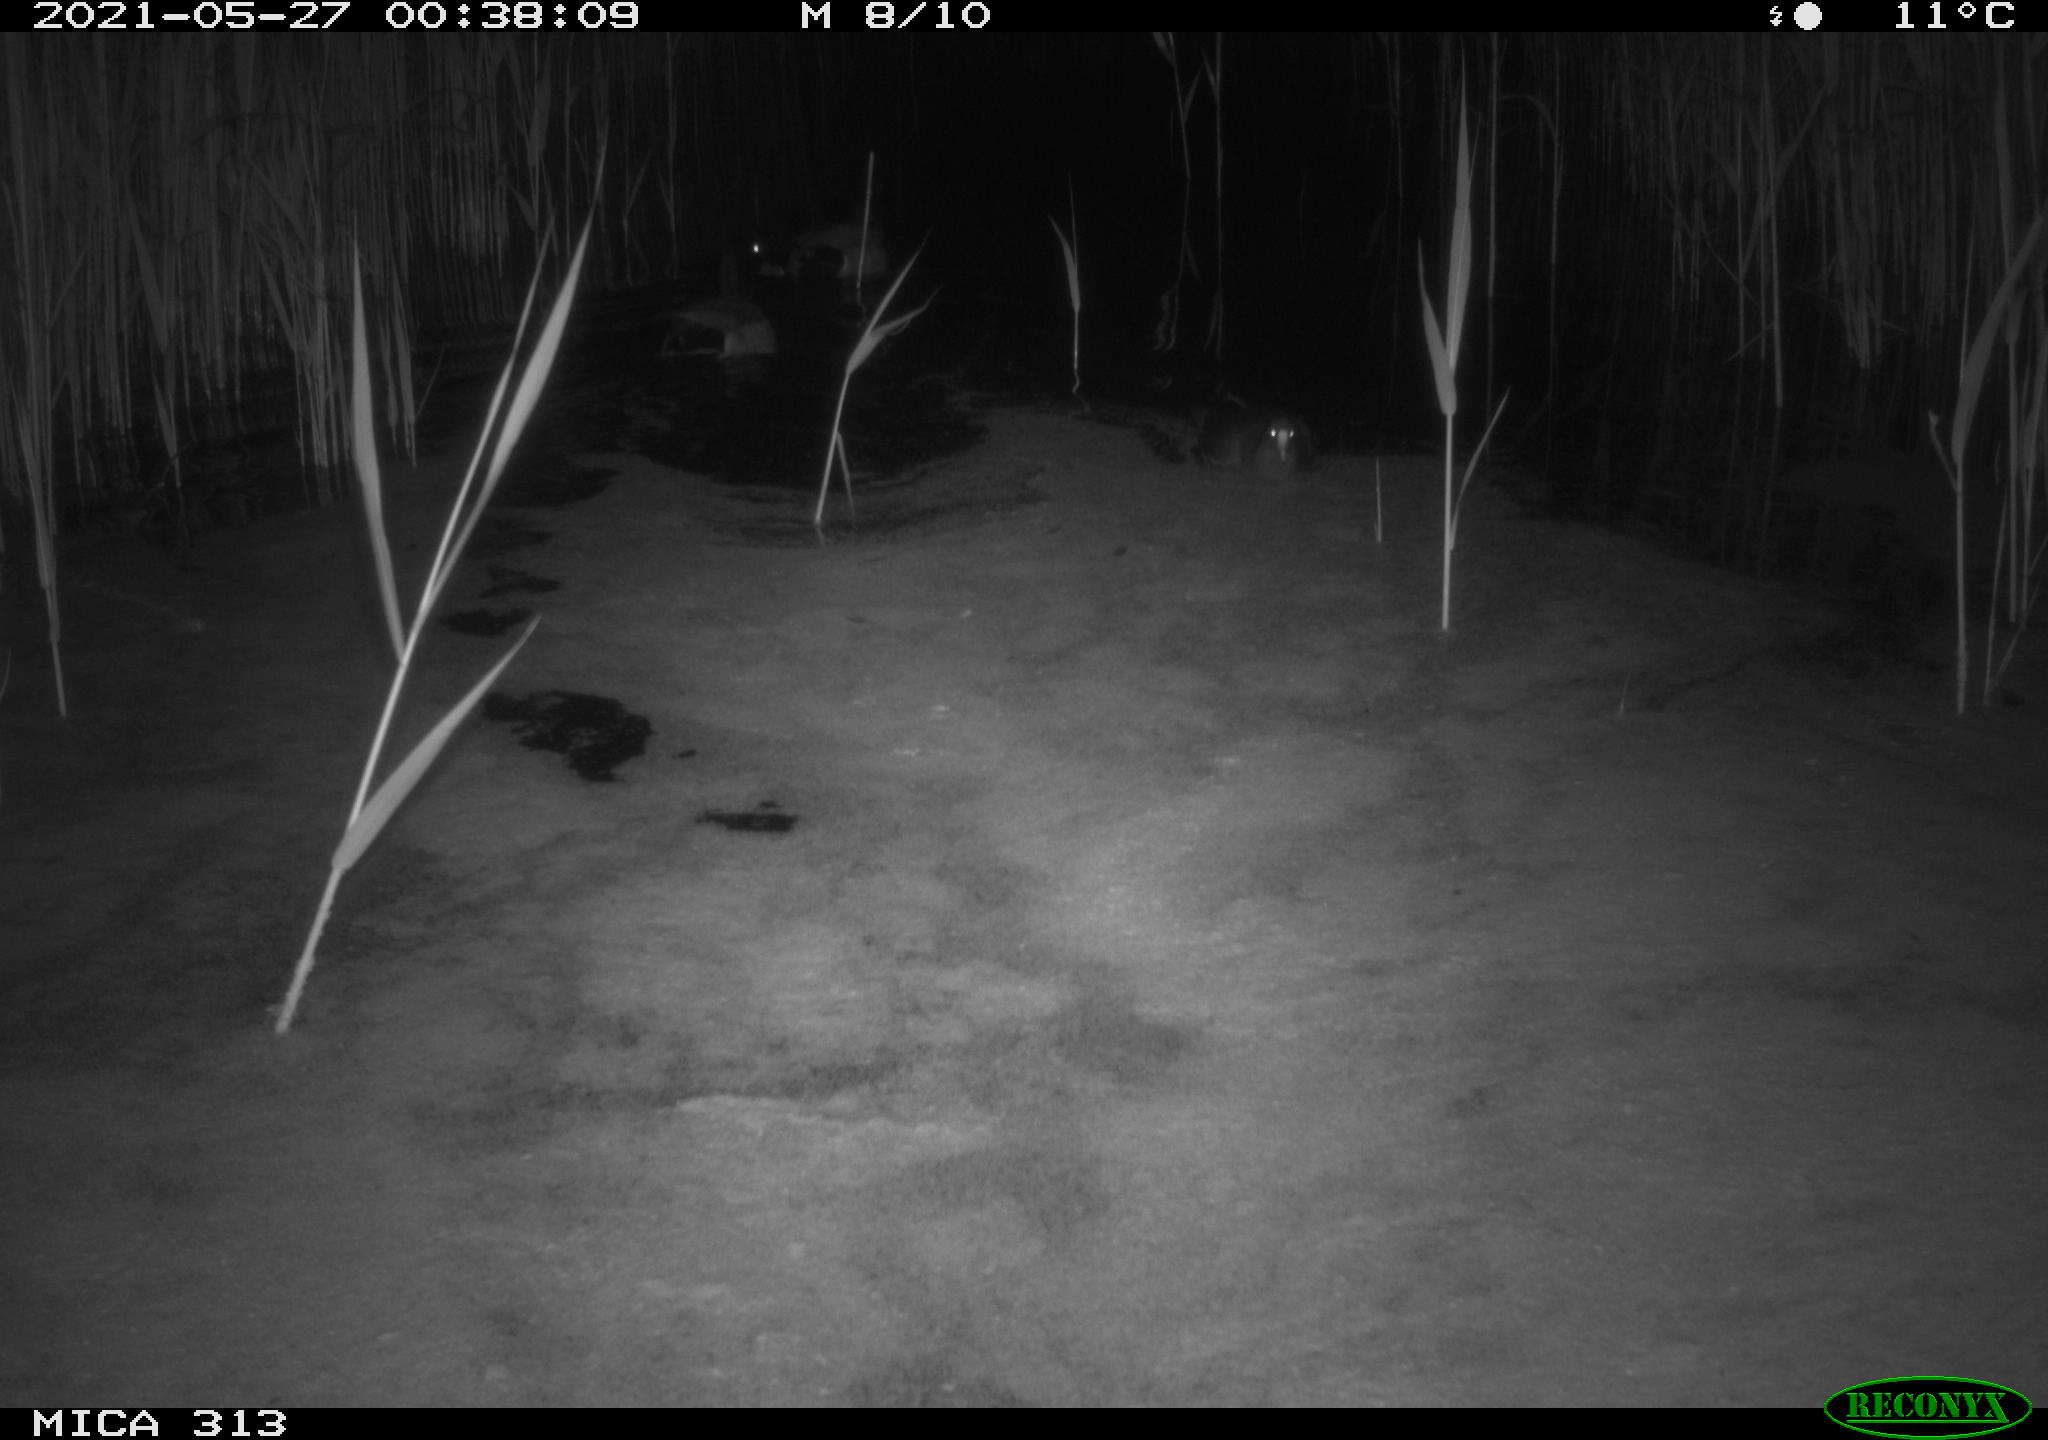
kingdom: Animalia
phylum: Chordata
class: Aves
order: Anseriformes
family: Anatidae
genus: Anas
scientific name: Anas platyrhynchos
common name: Mallard
